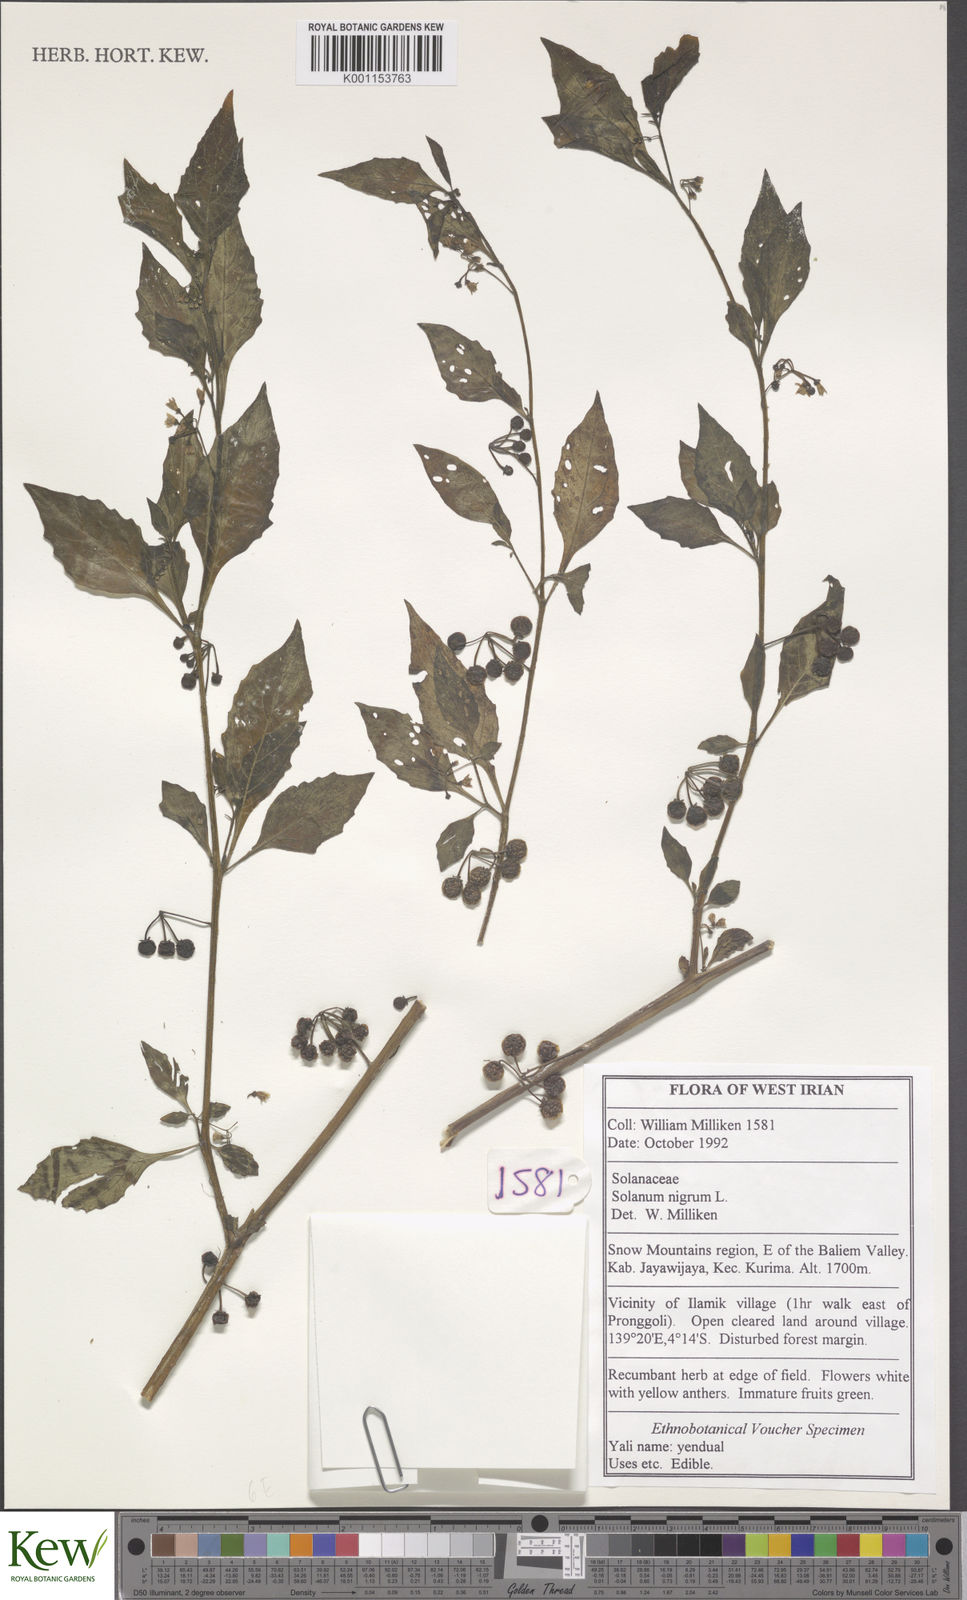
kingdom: Plantae
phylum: Tracheophyta
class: Magnoliopsida
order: Solanales
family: Solanaceae
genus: Solanum
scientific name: Solanum nigrum
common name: Black nightshade
